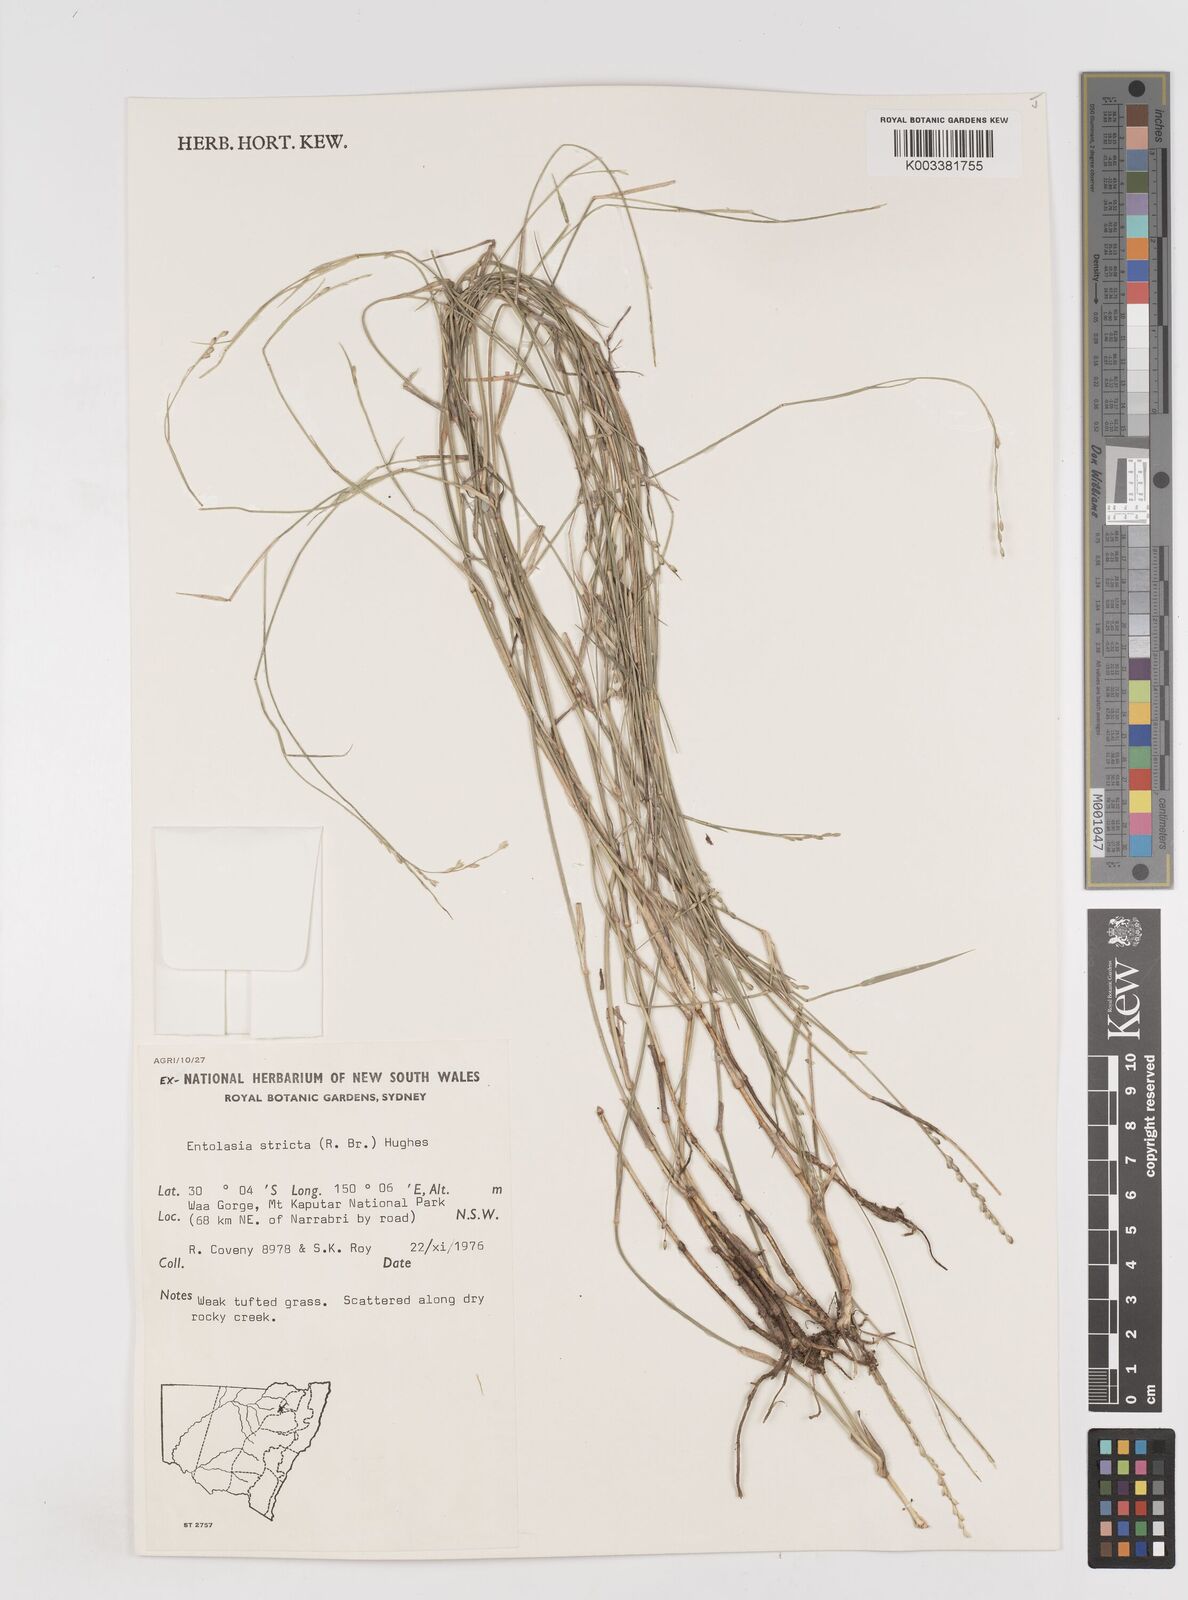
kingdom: Plantae
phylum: Tracheophyta
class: Liliopsida
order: Poales
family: Poaceae
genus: Entolasia
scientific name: Entolasia stricta
